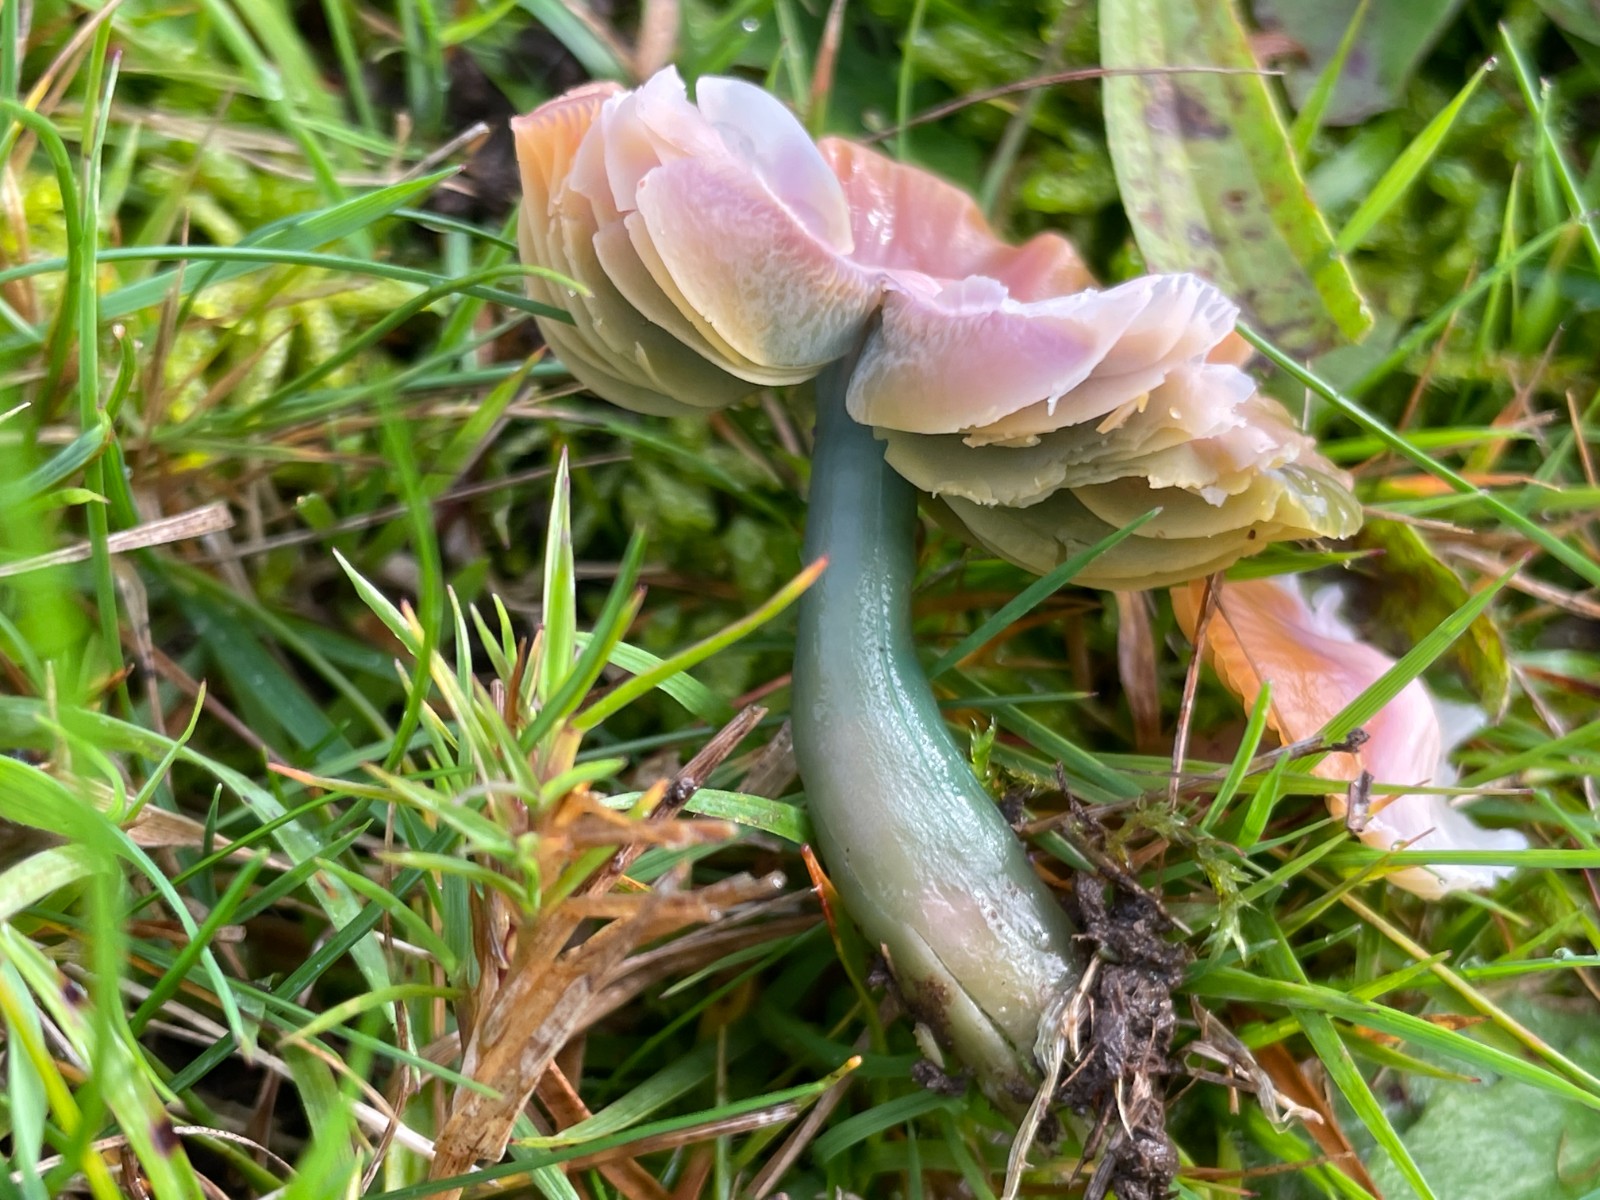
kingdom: Fungi
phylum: Basidiomycota
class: Agaricomycetes
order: Agaricales
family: Hygrophoraceae
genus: Gliophorus
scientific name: Gliophorus psittacinus
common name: papegøje-vokshat
